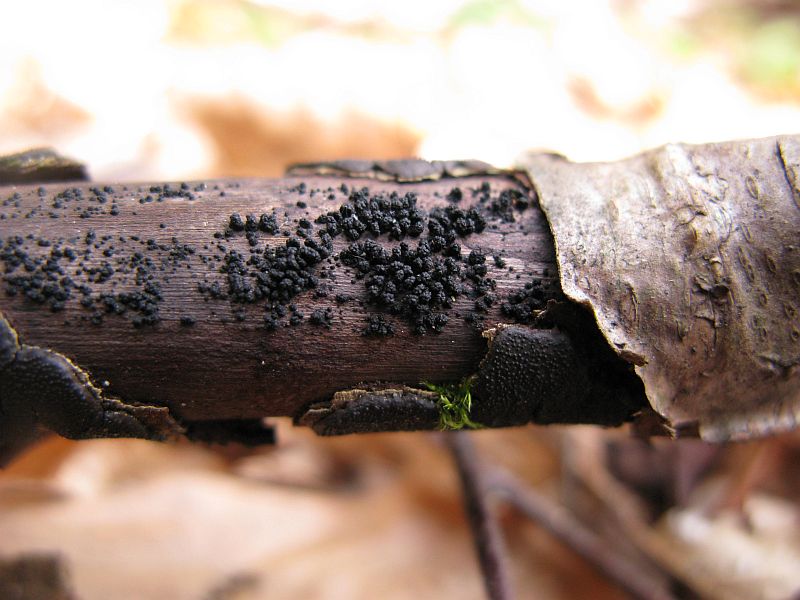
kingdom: Fungi
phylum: Ascomycota
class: Sordariomycetes
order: Coronophorales
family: Bertiaceae
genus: Bertia
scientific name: Bertia moriformis
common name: almindelig morbærkerne
